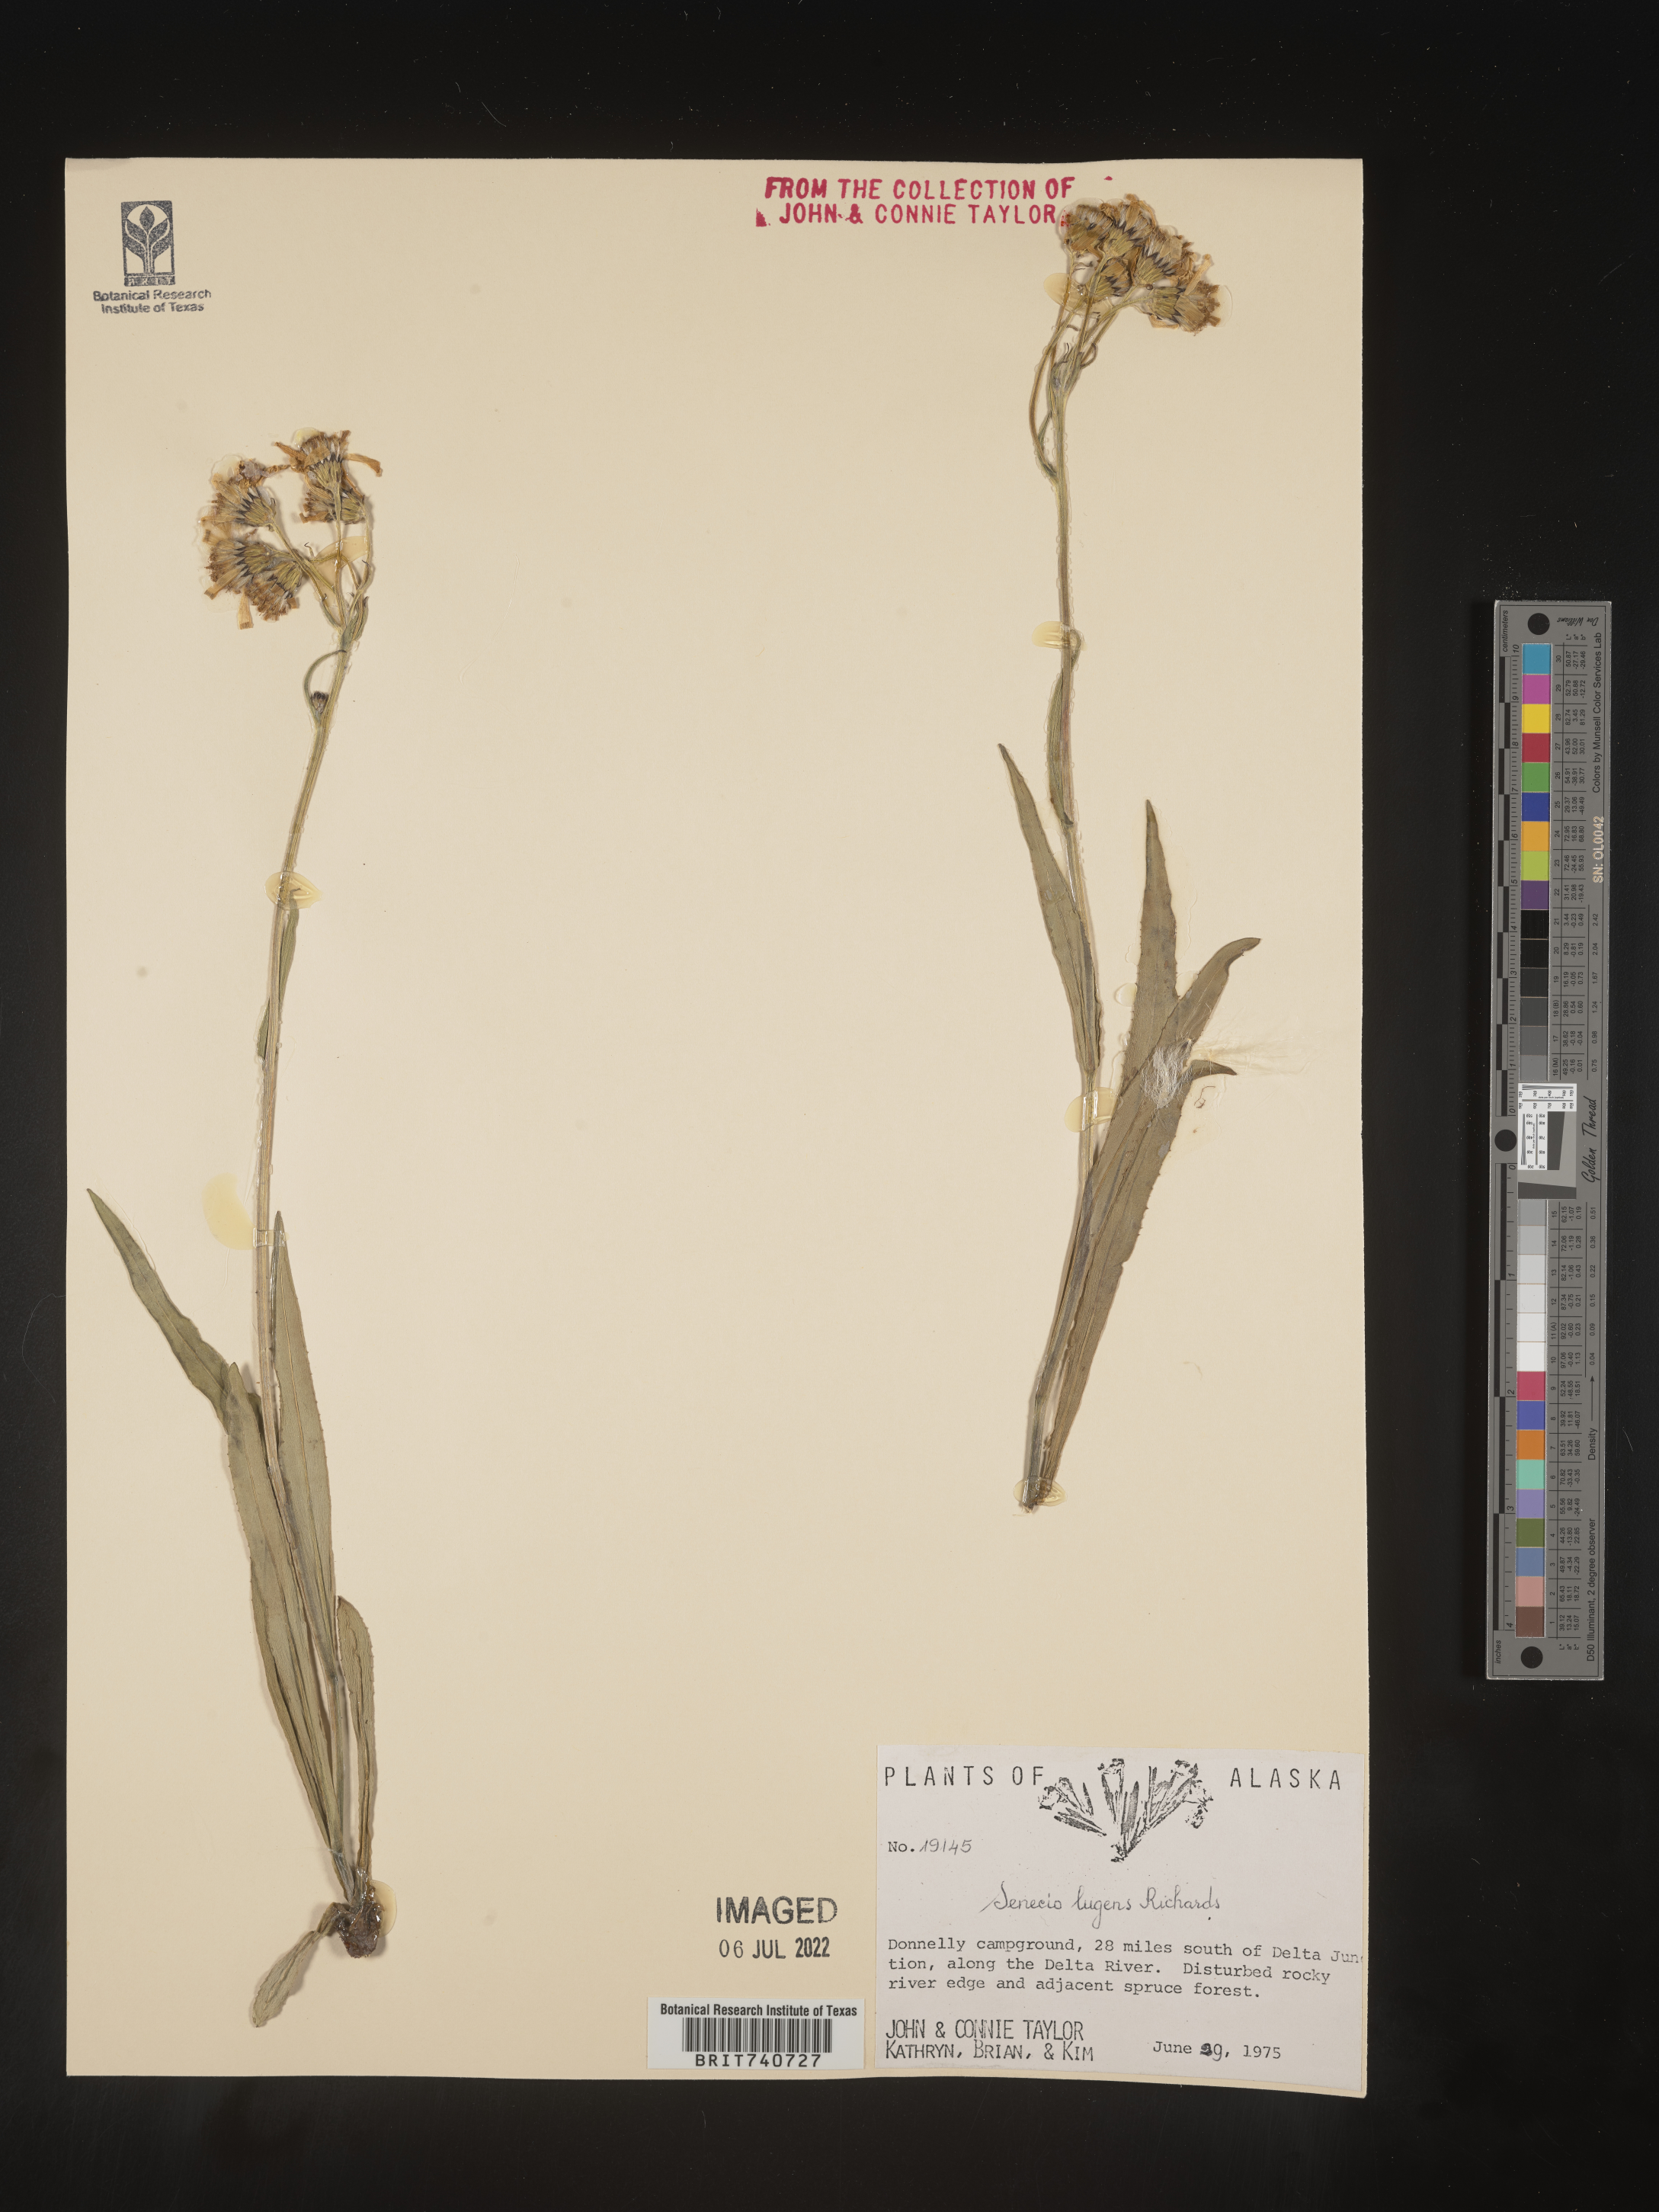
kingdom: Plantae
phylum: Tracheophyta
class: Magnoliopsida
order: Asterales
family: Asteraceae
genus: Senecio
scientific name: Senecio lugens
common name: Black-tip groundsel
